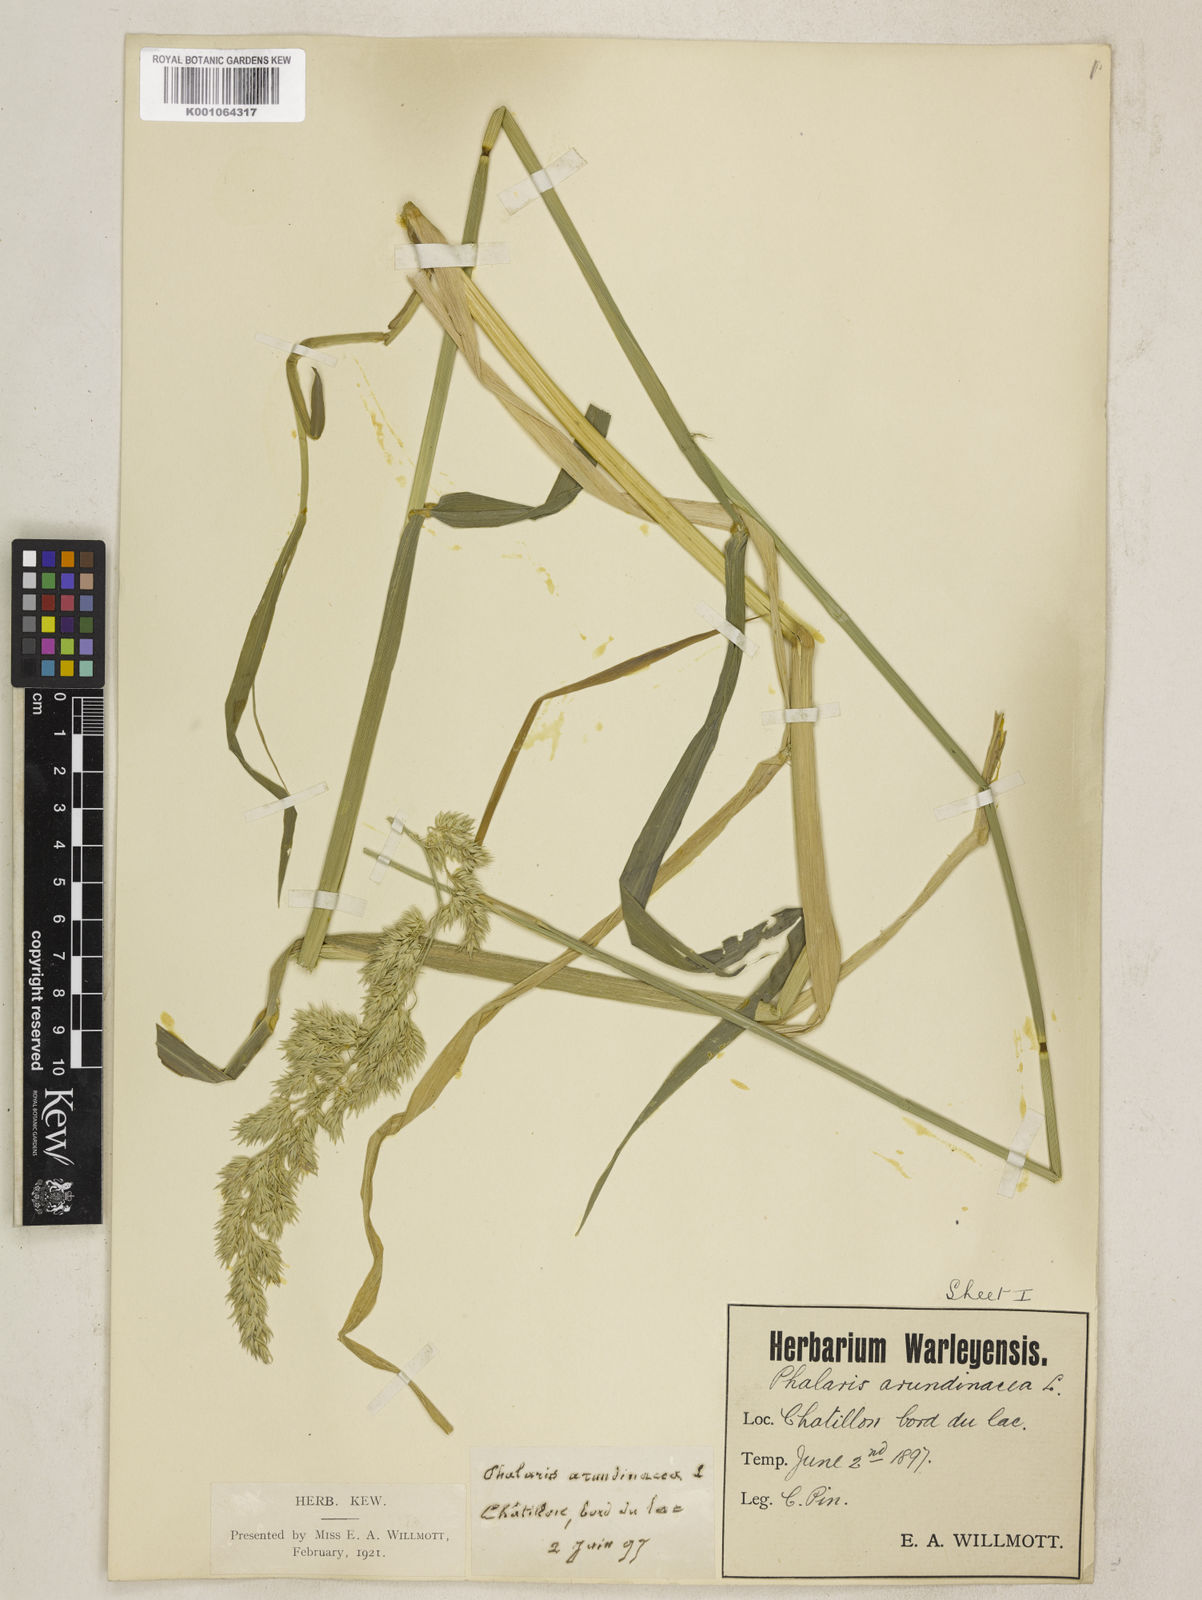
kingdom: Plantae
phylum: Tracheophyta
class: Liliopsida
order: Poales
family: Poaceae
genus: Phalaris
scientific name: Phalaris arundinacea
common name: Reed canary-grass
